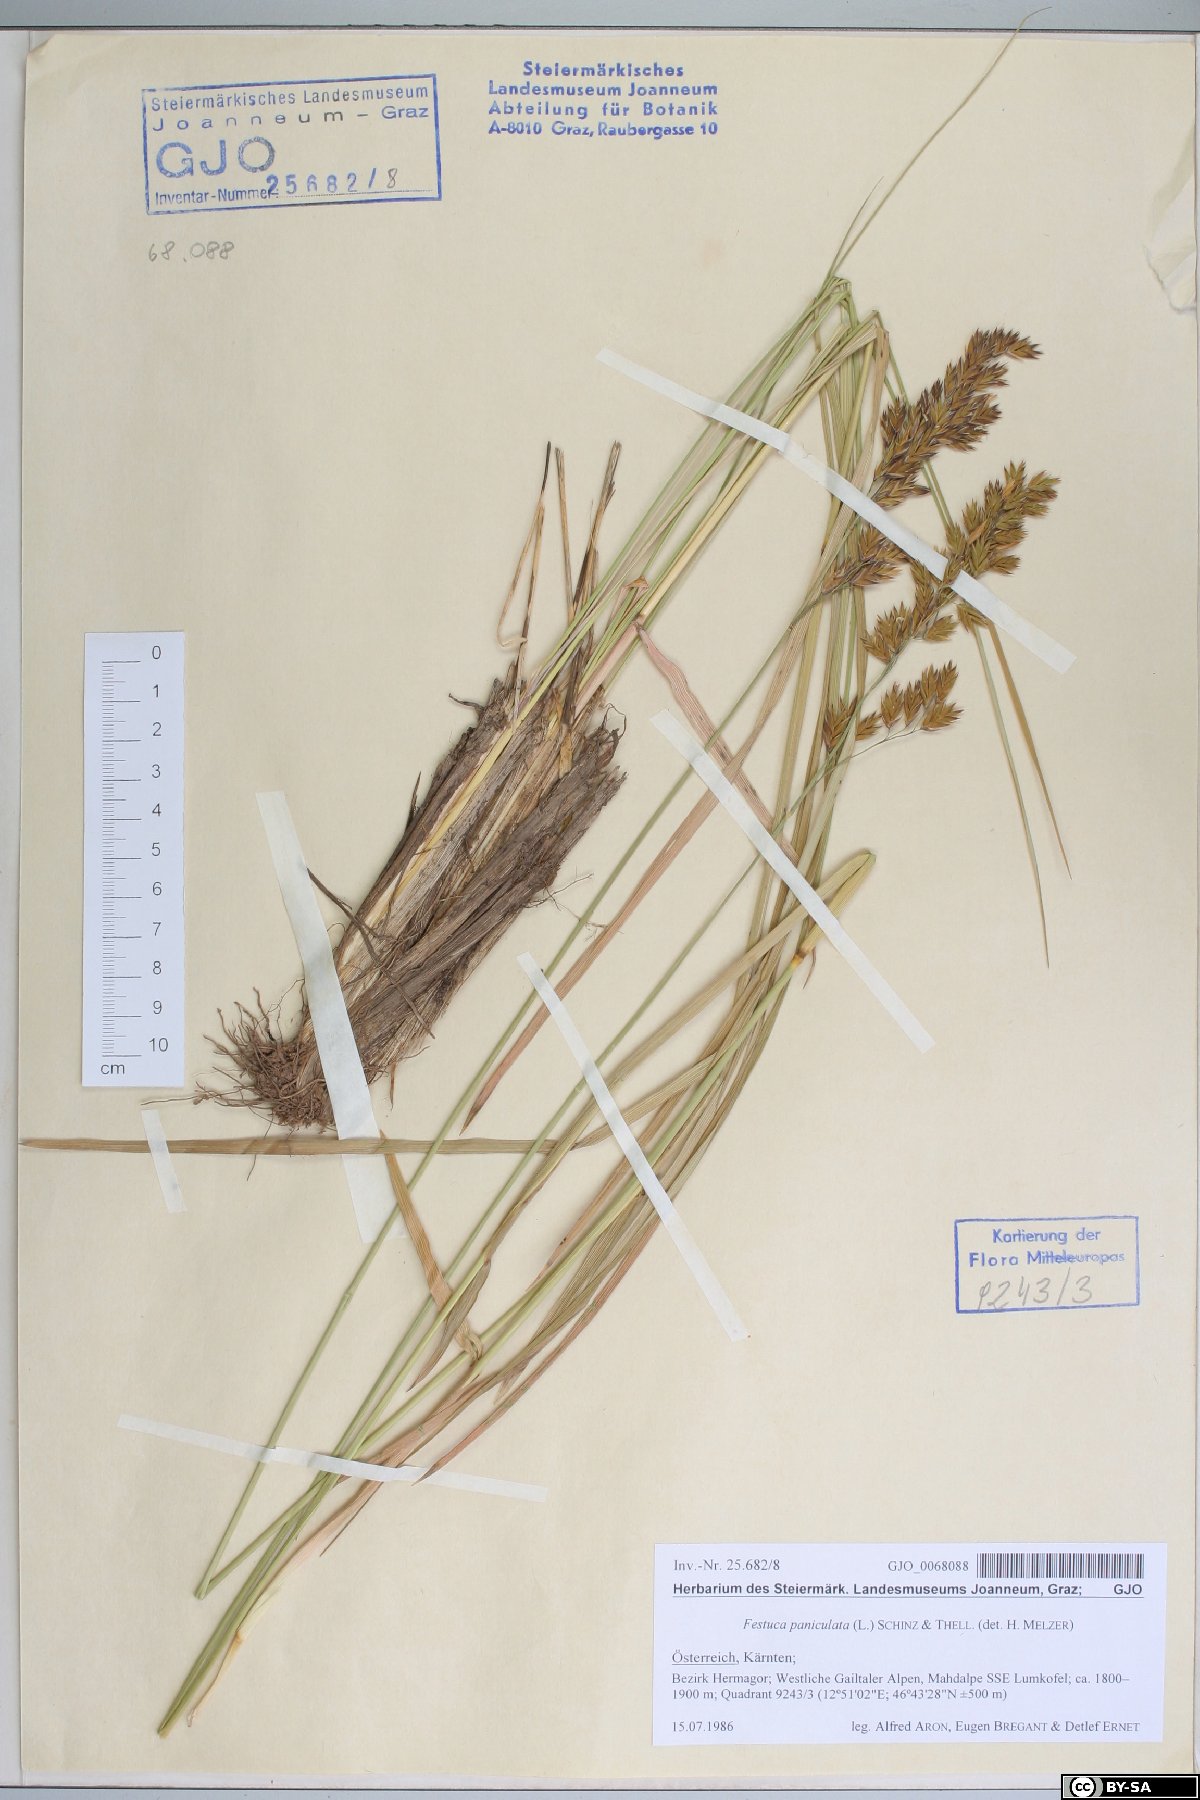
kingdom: Plantae
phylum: Tracheophyta
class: Liliopsida
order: Poales
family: Poaceae
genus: Patzkea
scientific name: Patzkea paniculata
